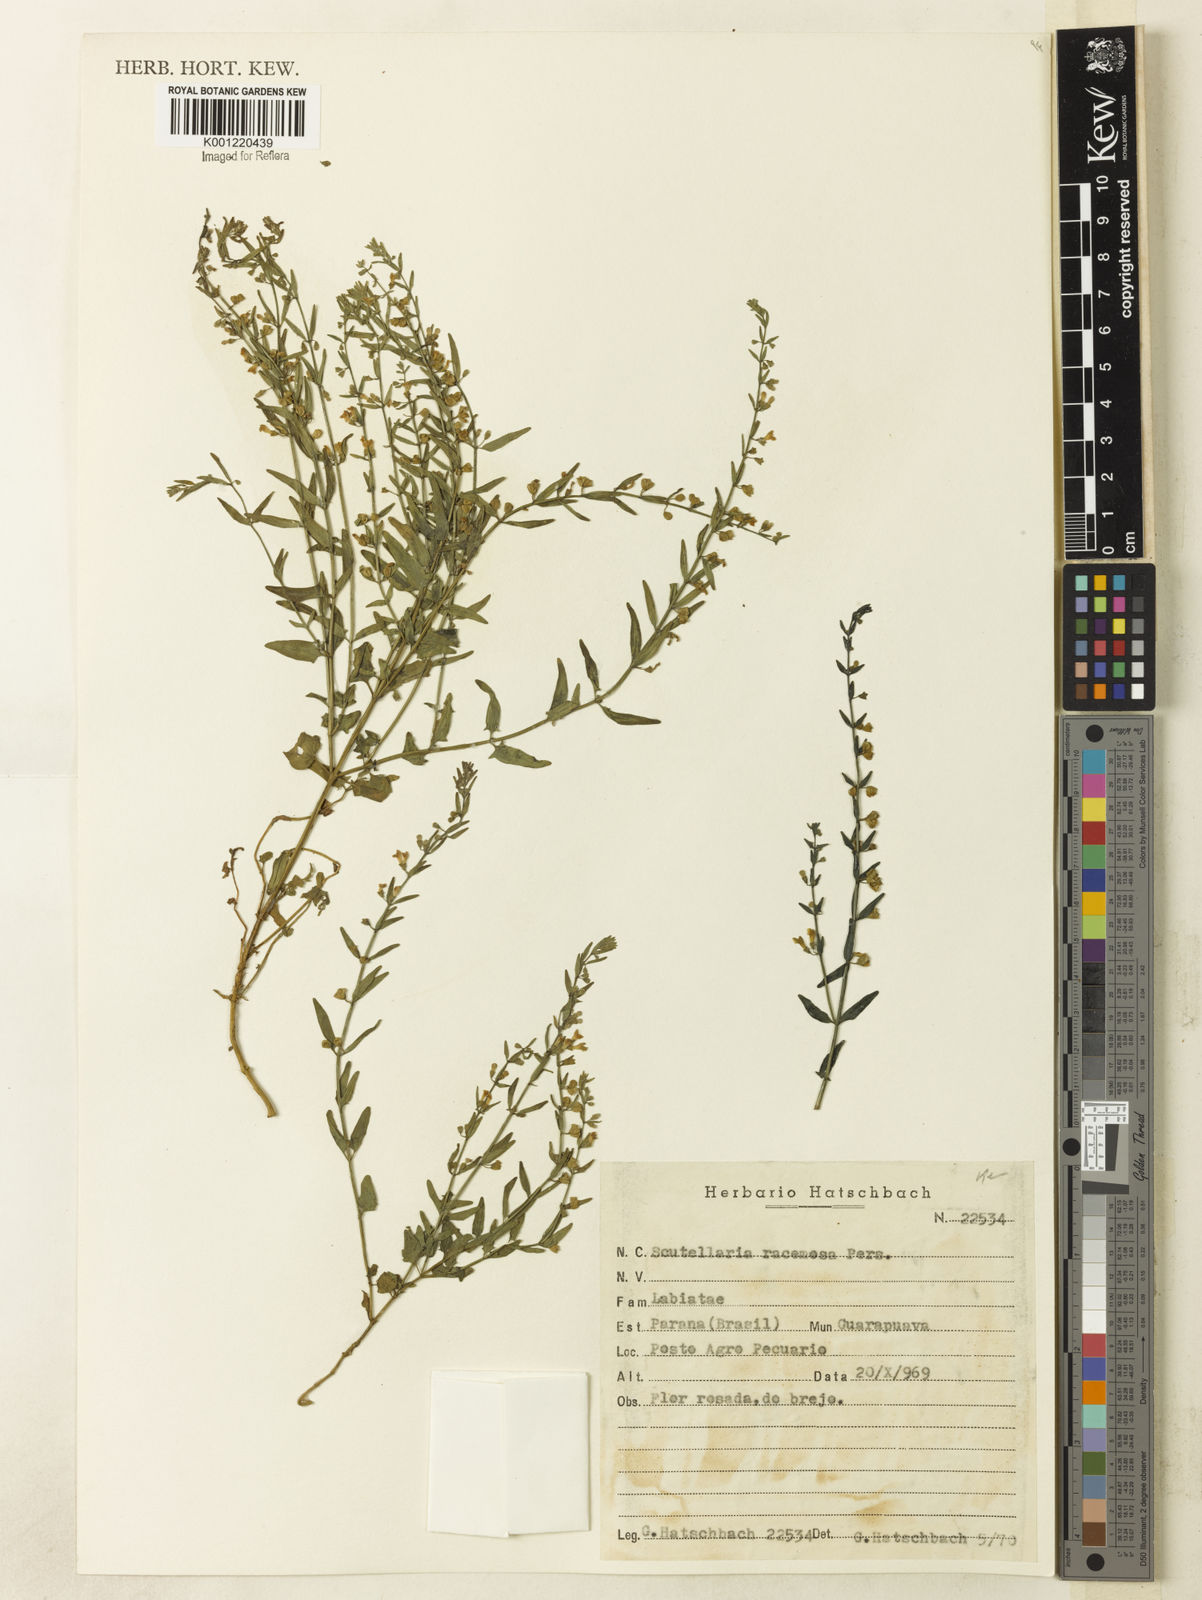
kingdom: Plantae
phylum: Tracheophyta
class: Magnoliopsida
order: Lamiales
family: Lamiaceae
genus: Scutellaria
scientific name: Scutellaria racemosa
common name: South american skullcap
